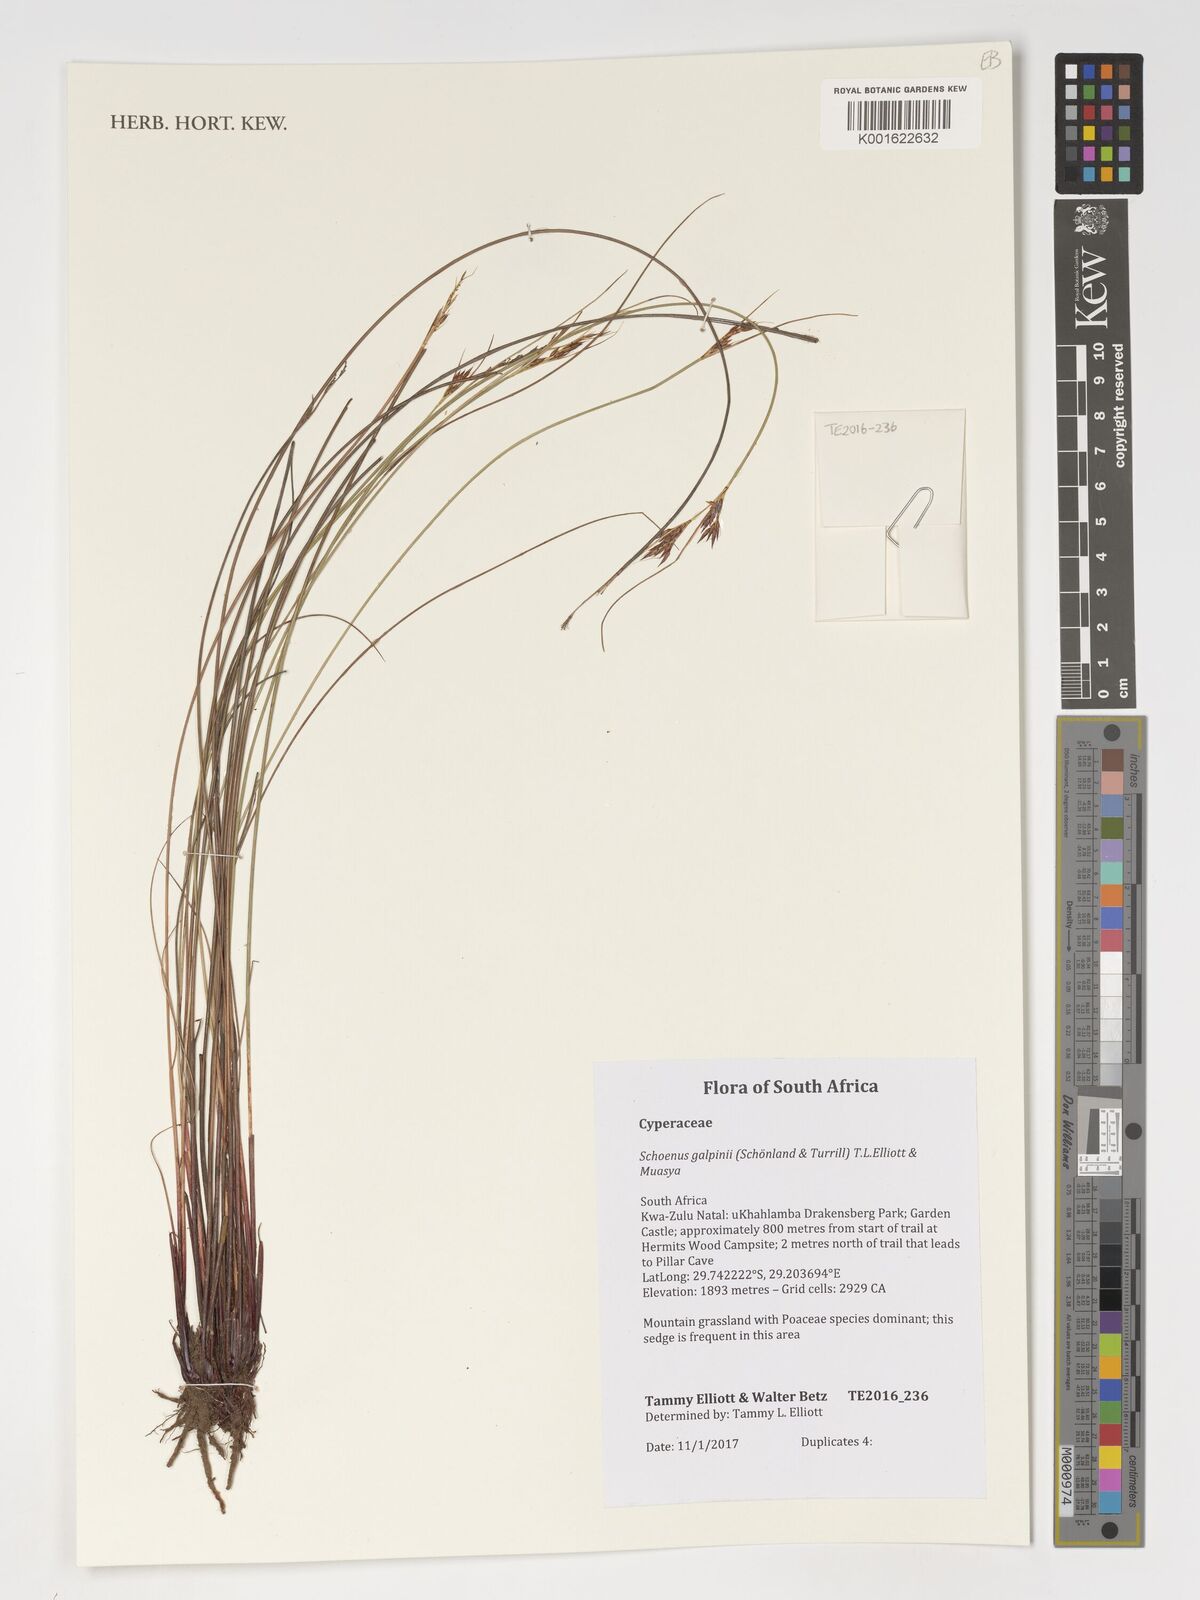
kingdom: Plantae
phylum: Tracheophyta
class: Liliopsida
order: Poales
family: Cyperaceae
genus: Schoenus
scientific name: Schoenus galpinii
